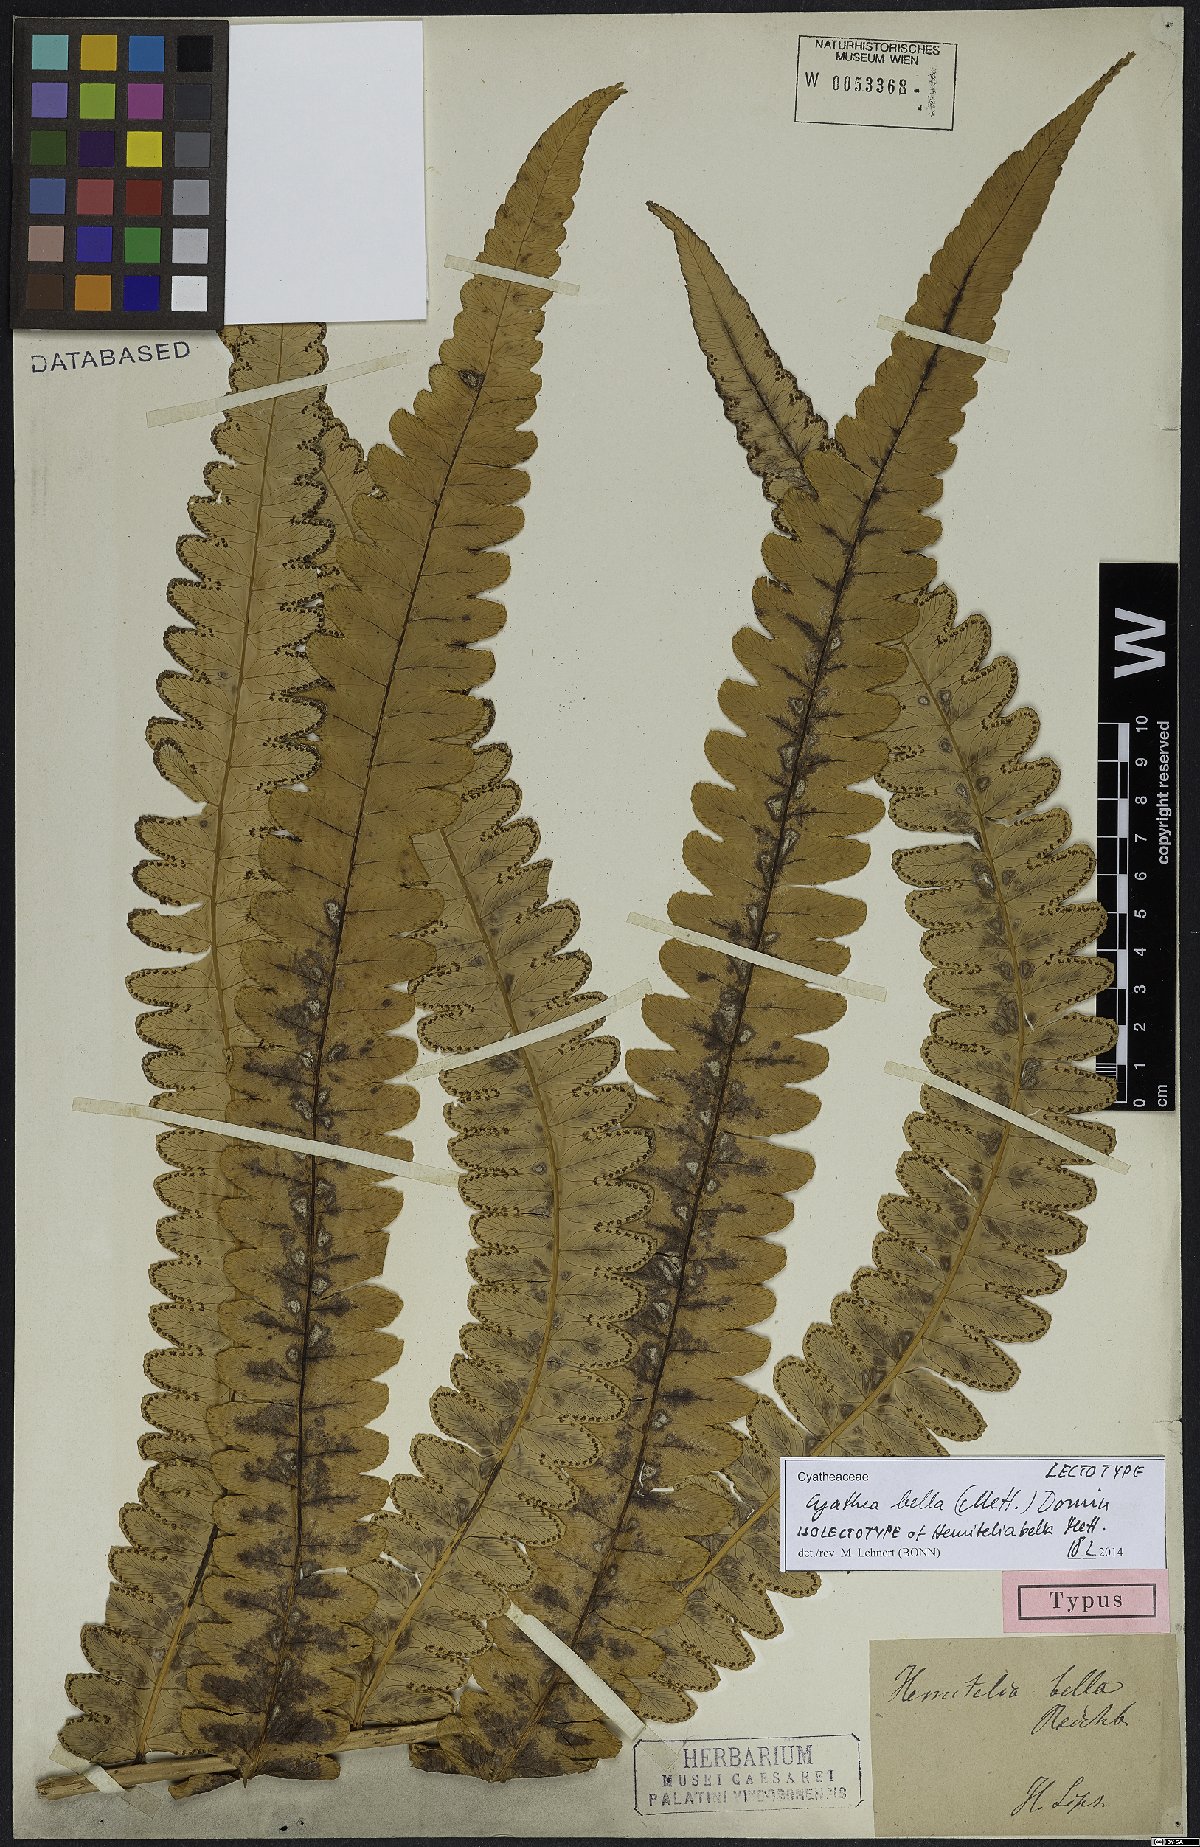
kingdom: Plantae
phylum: Tracheophyta
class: Polypodiopsida
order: Cyatheales
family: Cyatheaceae
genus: Cyathea
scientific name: Cyathea bella
